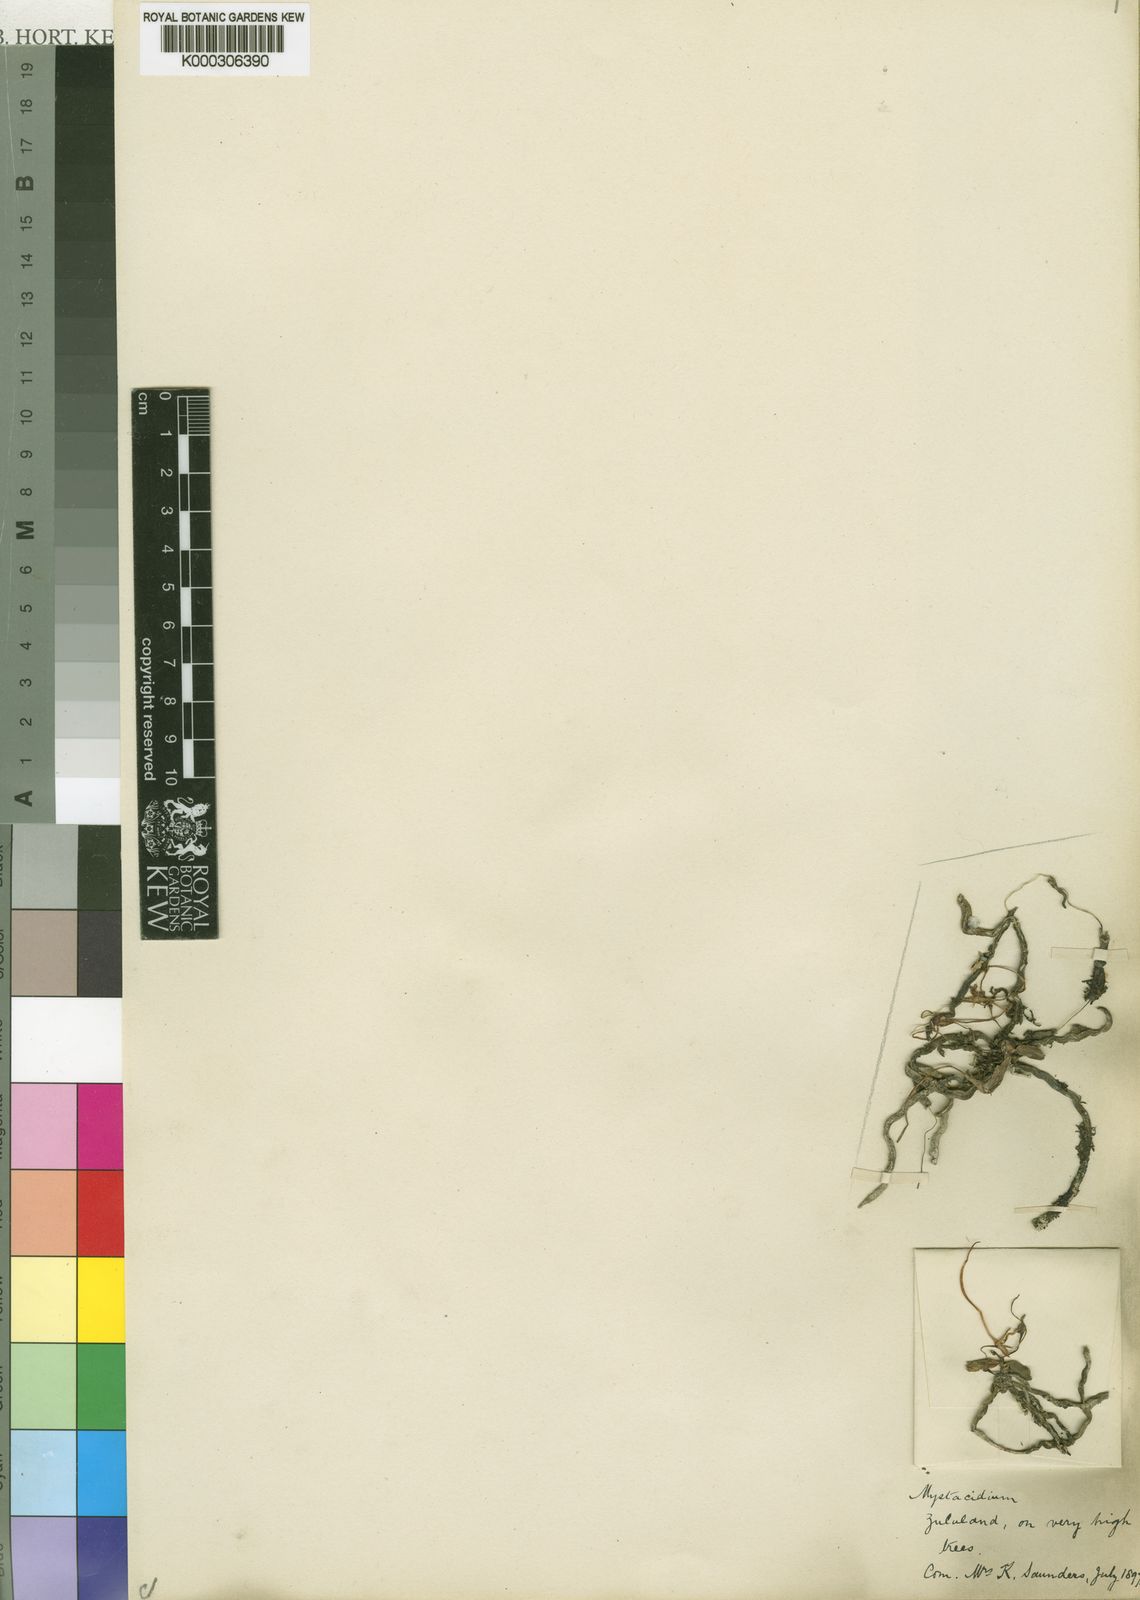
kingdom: Plantae
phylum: Tracheophyta
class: Liliopsida
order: Asparagales
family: Orchidaceae
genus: Mystacidium
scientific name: Mystacidium venosum
